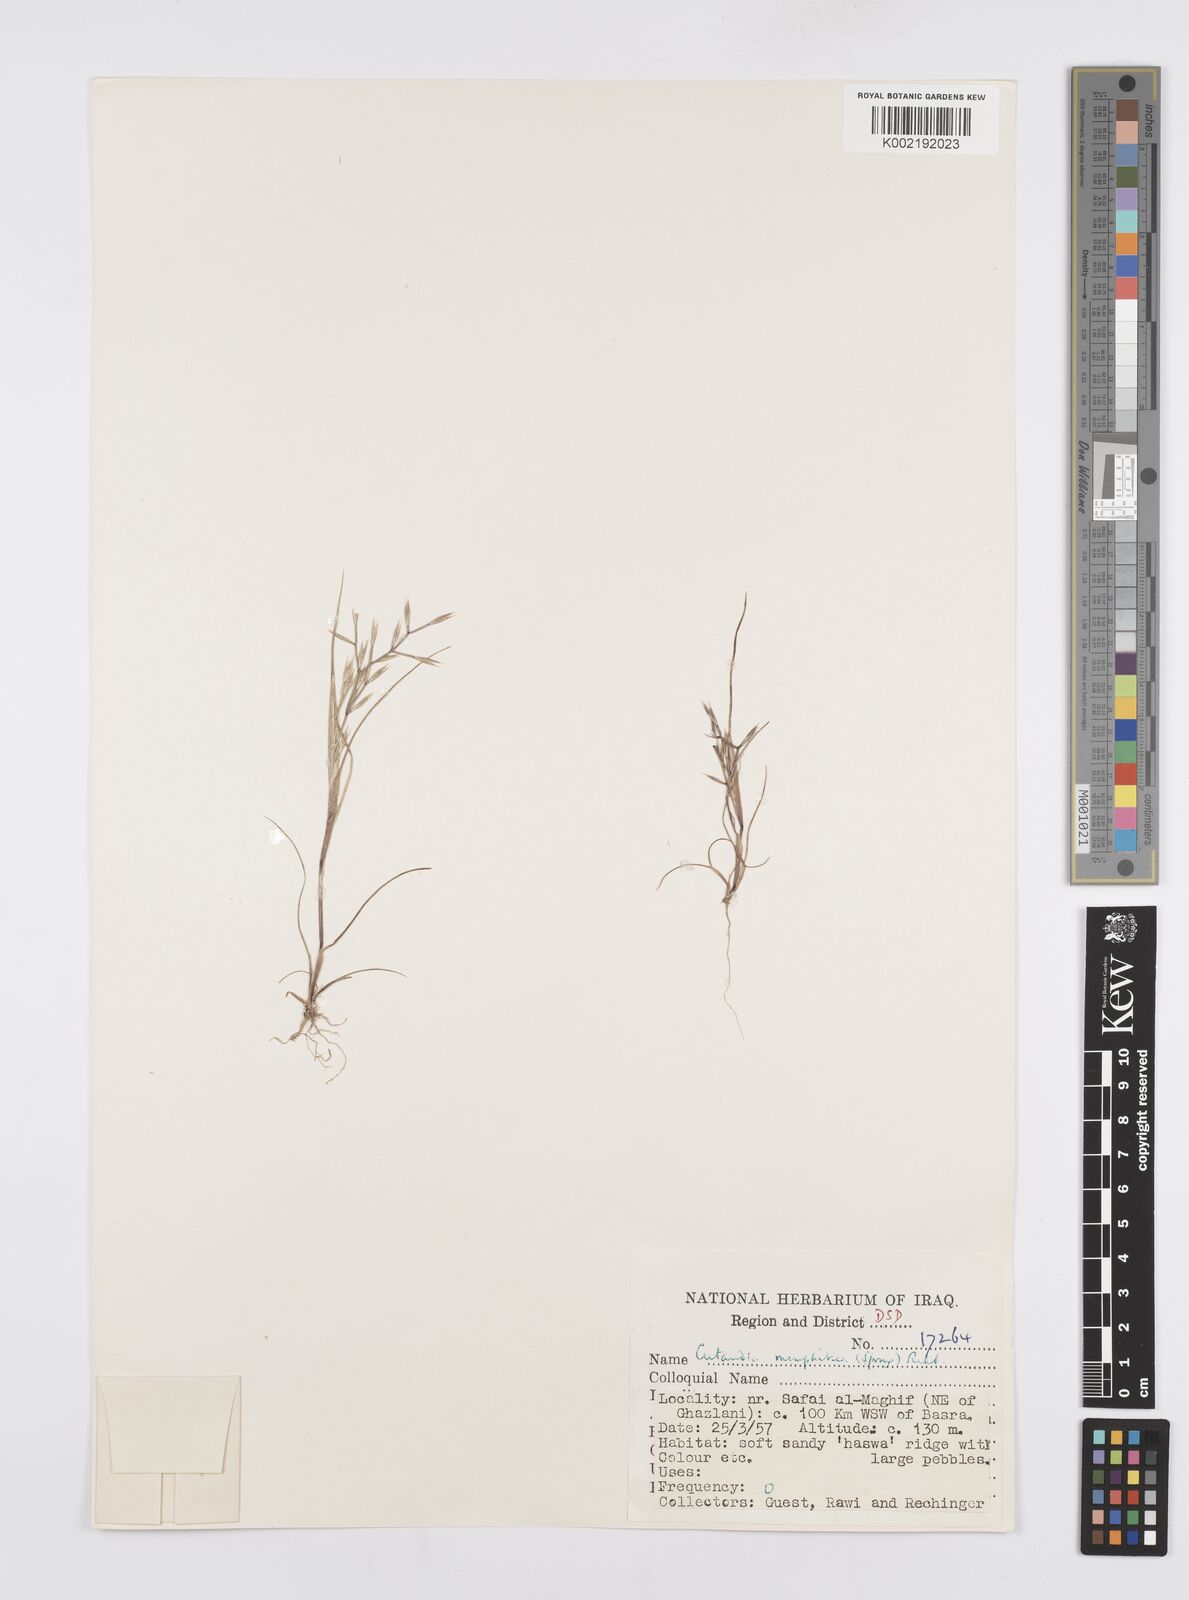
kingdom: Plantae
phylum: Tracheophyta
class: Liliopsida
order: Poales
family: Poaceae
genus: Cutandia
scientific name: Cutandia memphitica
